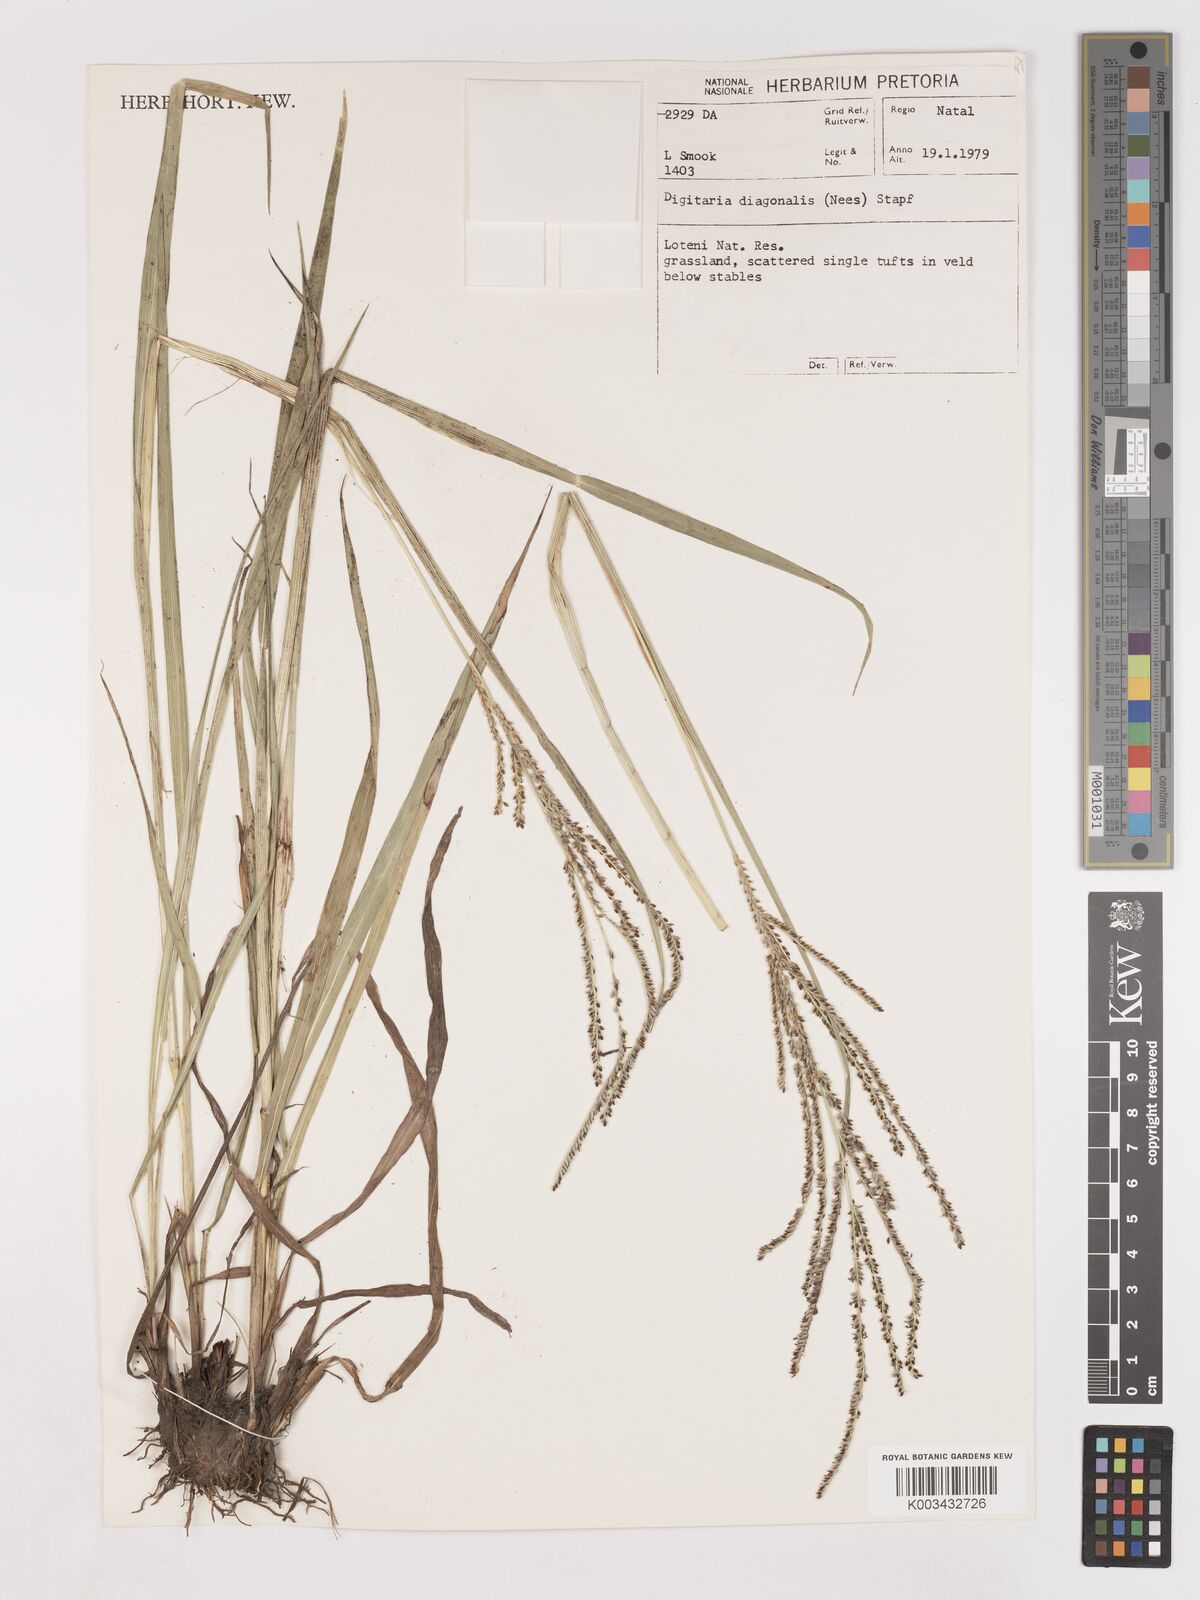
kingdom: Plantae
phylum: Tracheophyta
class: Liliopsida
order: Poales
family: Poaceae
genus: Digitaria
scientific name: Digitaria diagonalis
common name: Brown-seed finger grass
